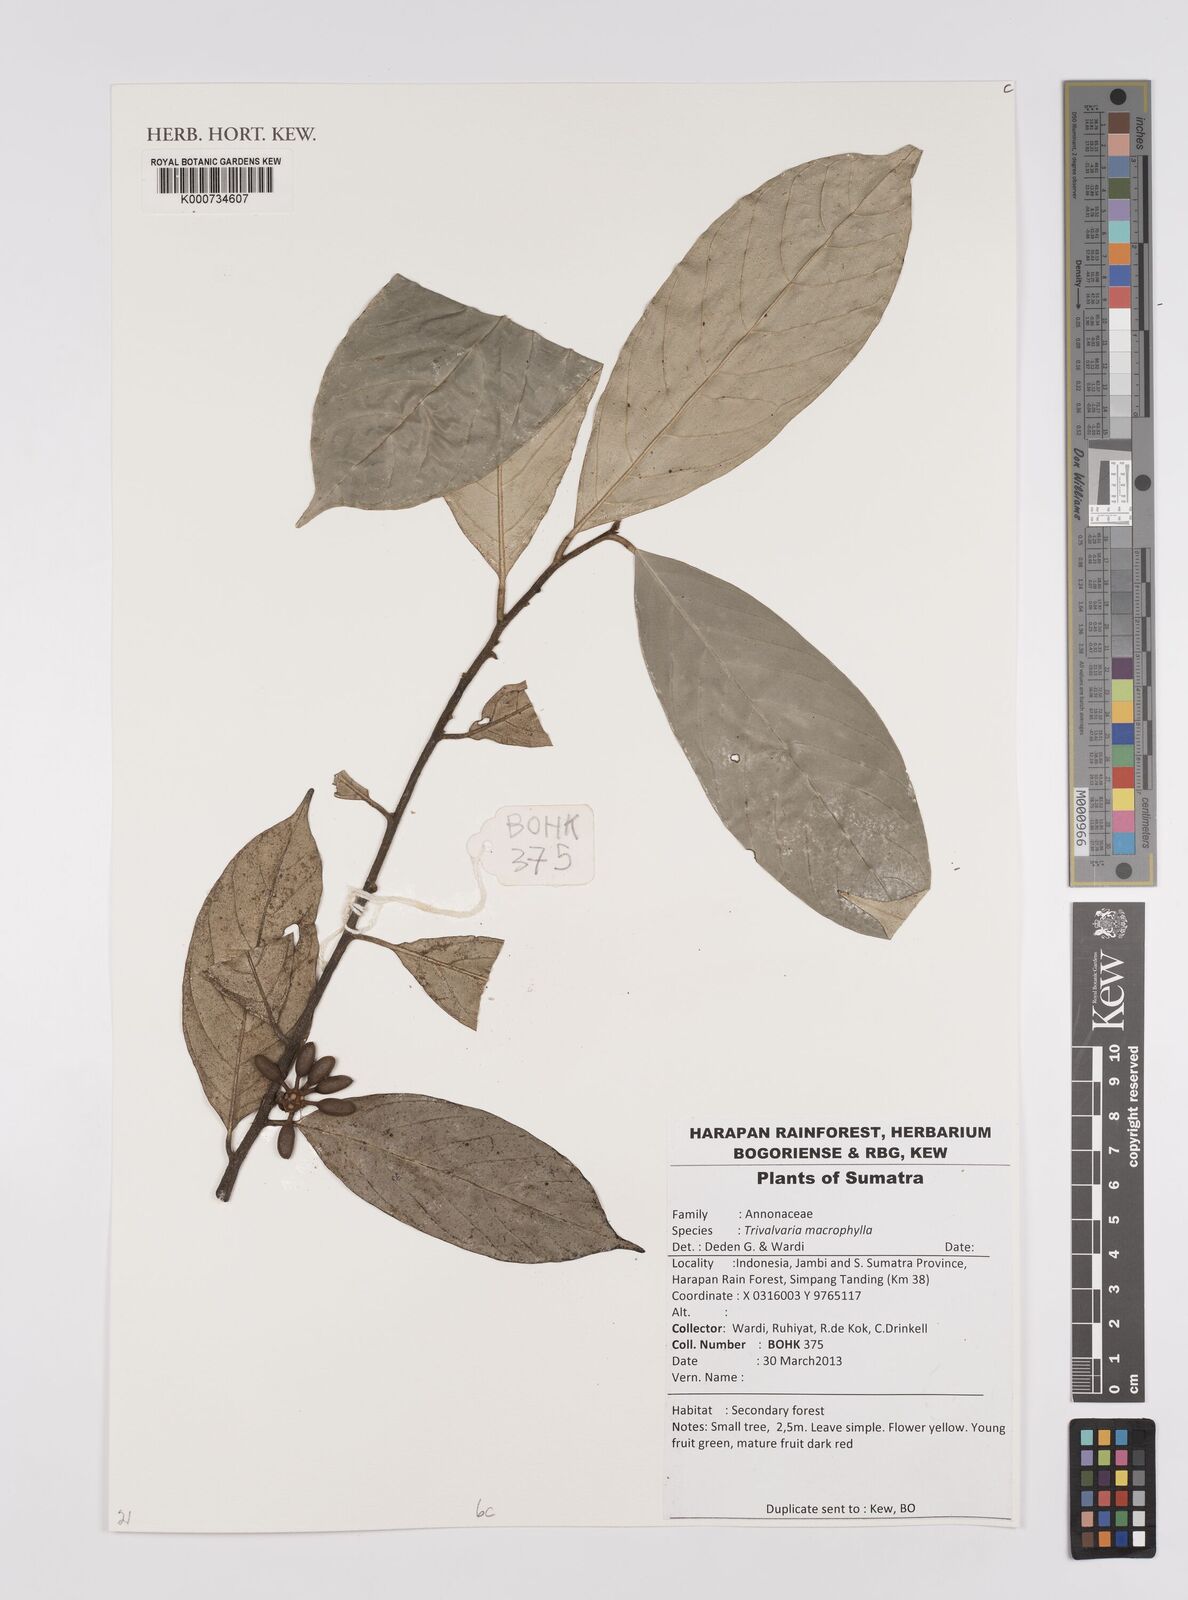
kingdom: Plantae
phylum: Tracheophyta
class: Magnoliopsida
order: Magnoliales
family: Annonaceae
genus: Trivalvaria
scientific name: Trivalvaria macrophylla
